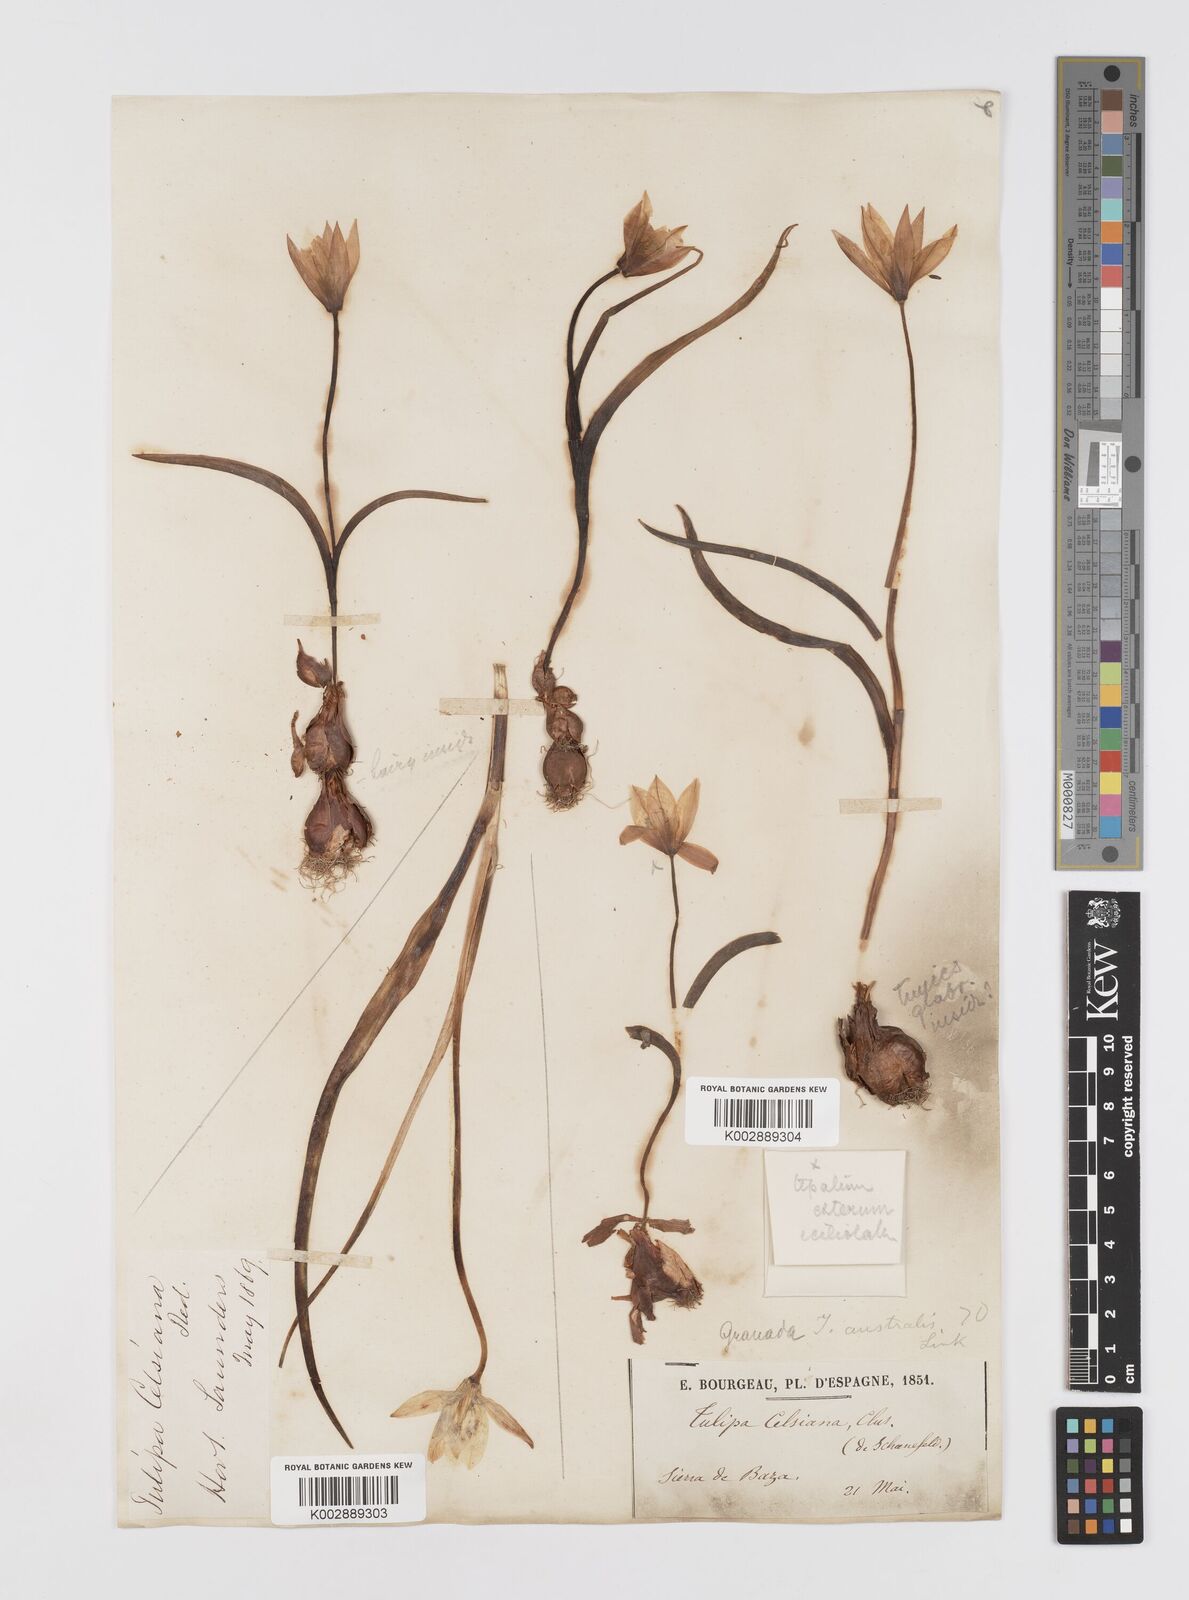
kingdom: Plantae
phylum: Tracheophyta
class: Liliopsida
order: Liliales
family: Liliaceae
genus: Tulipa
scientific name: Tulipa
